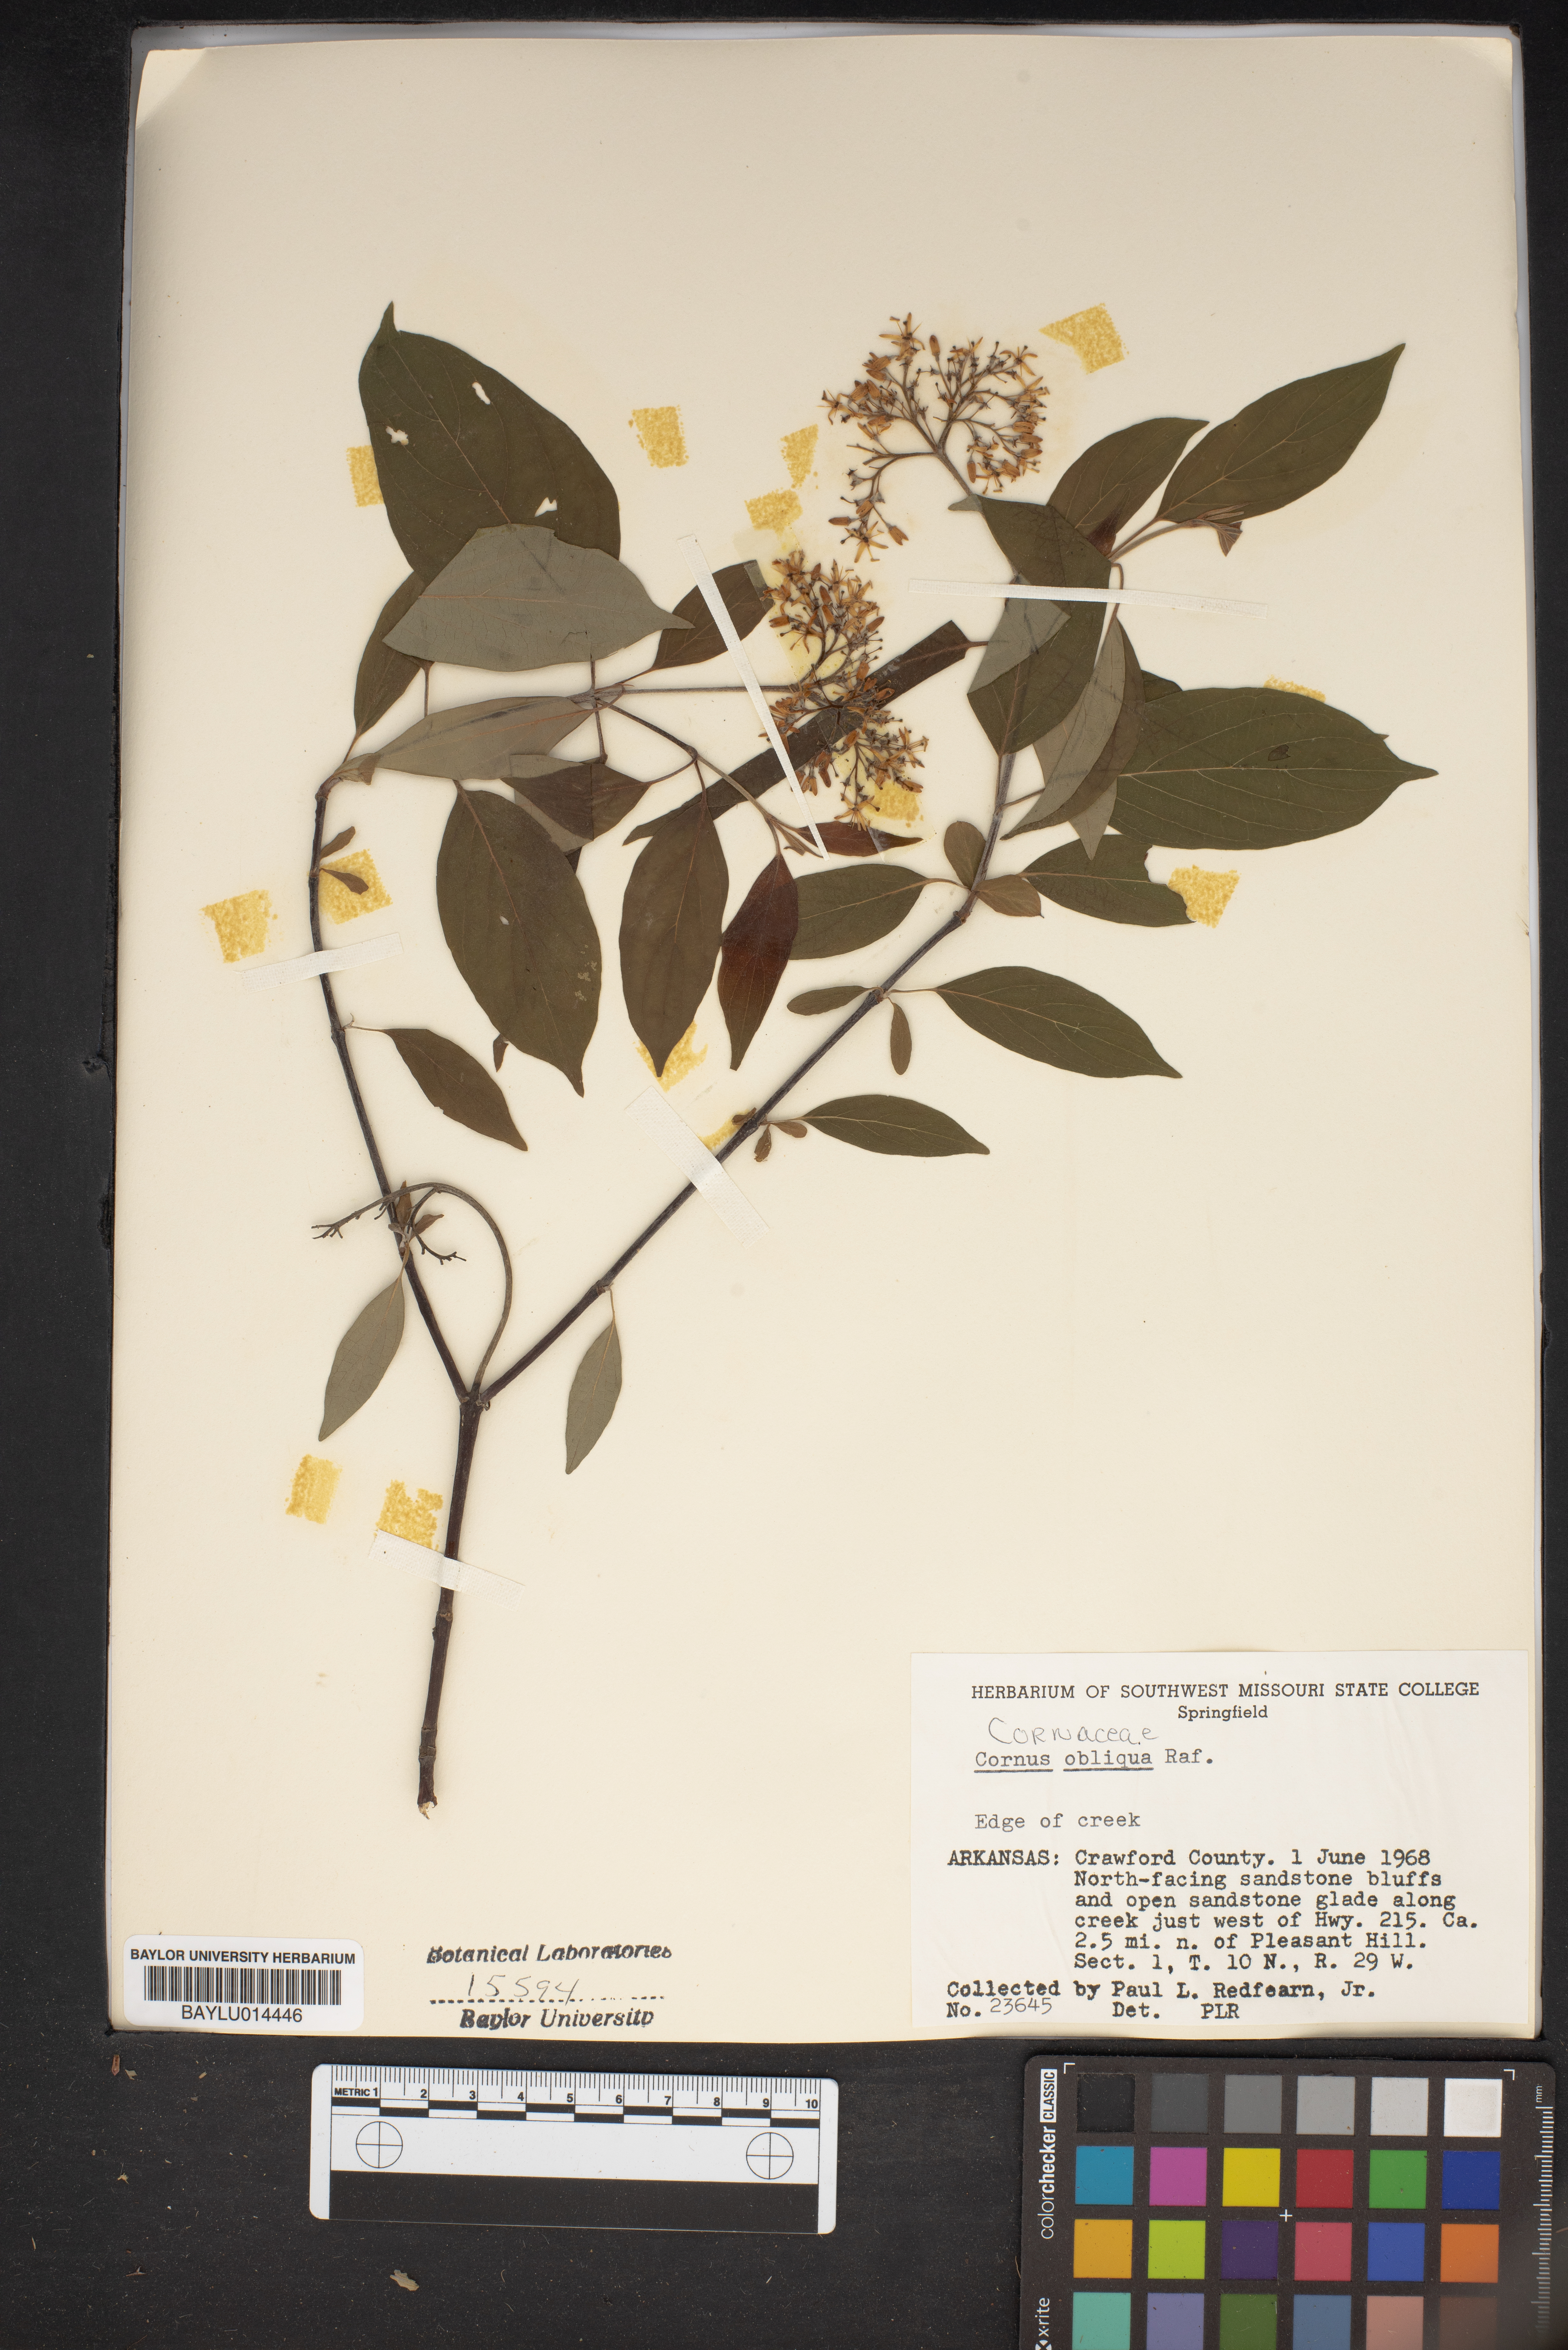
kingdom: Plantae
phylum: Tracheophyta
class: Magnoliopsida
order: Cornales
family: Cornaceae
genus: Cornus
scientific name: Cornus oblonga
